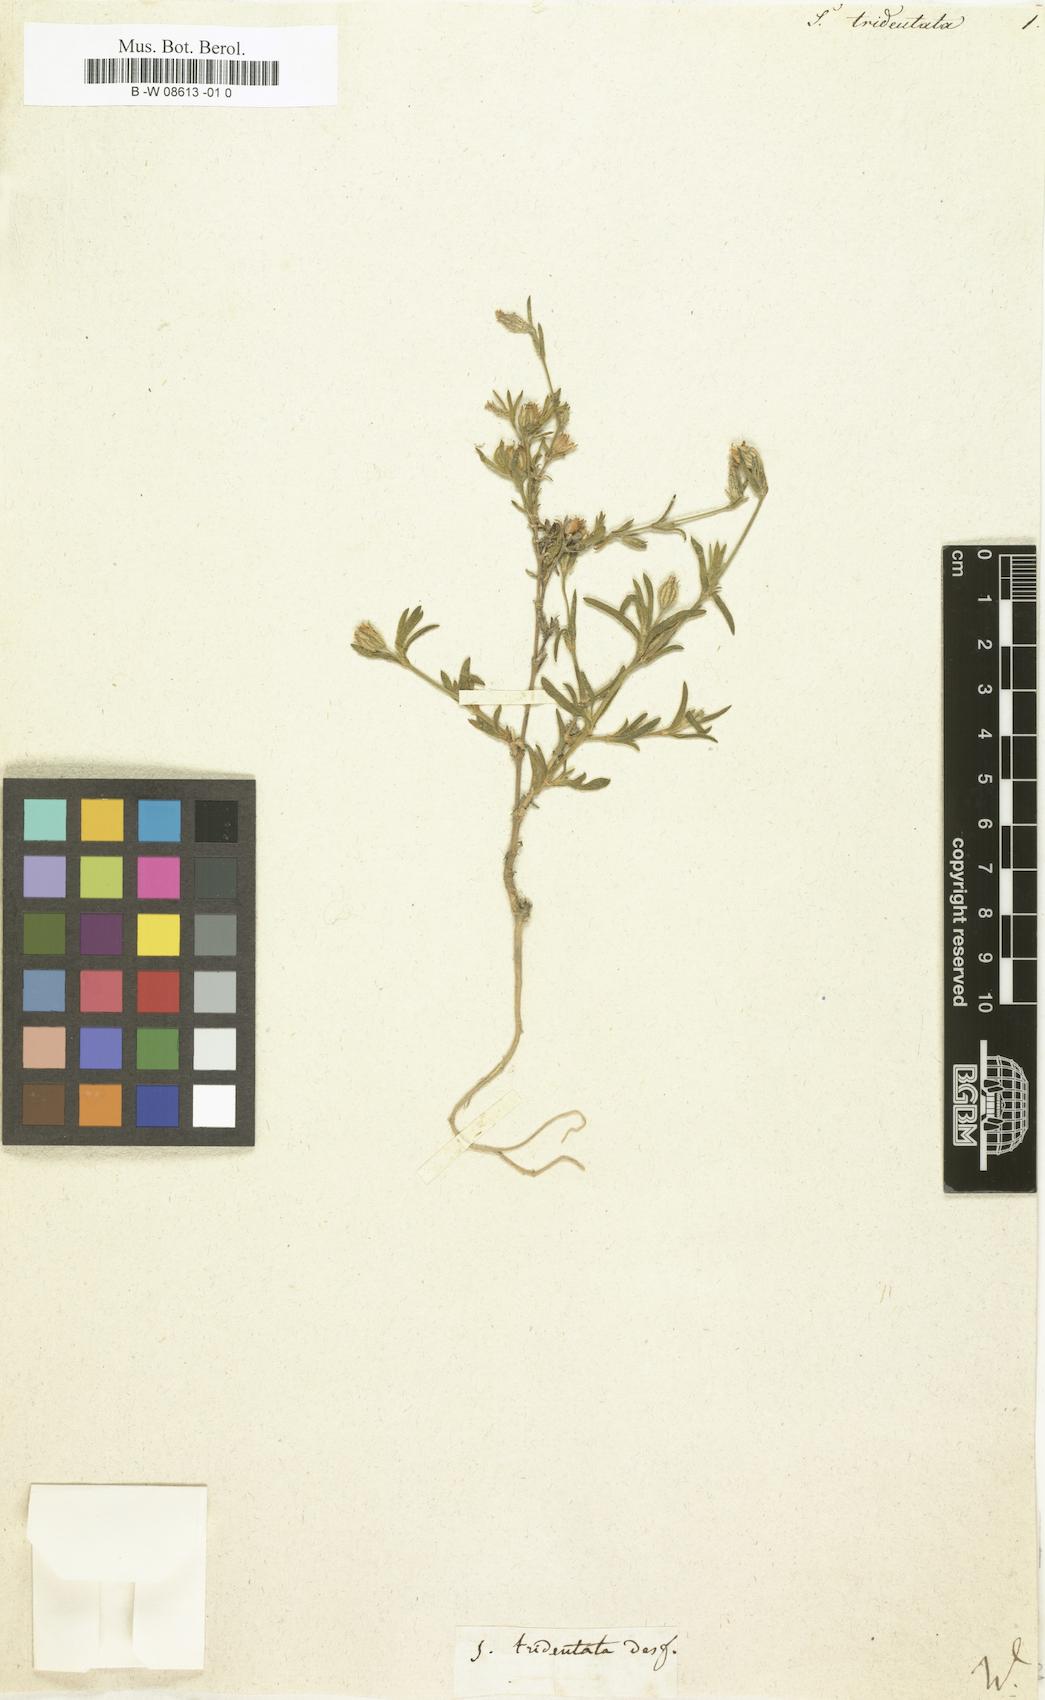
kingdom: Plantae
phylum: Tracheophyta
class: Magnoliopsida
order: Caryophyllales
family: Caryophyllaceae
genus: Silene
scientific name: Silene tridentata
